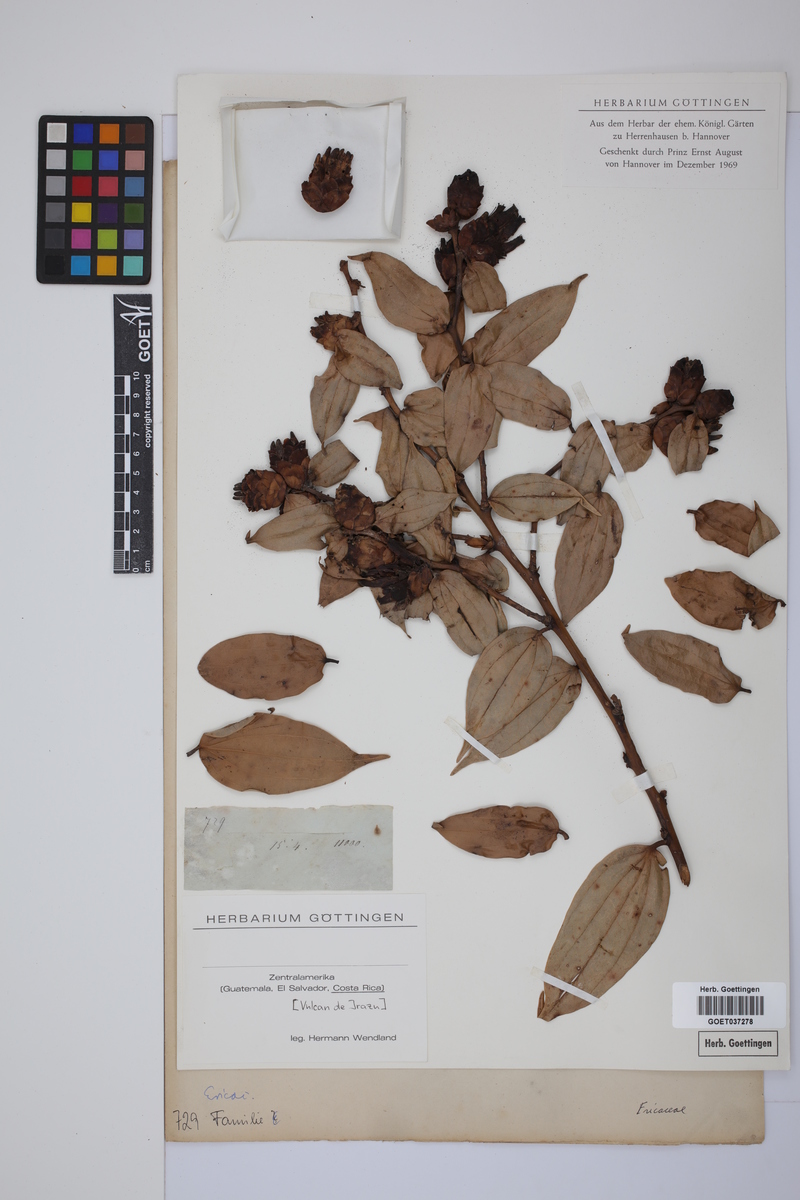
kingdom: Plantae
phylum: Tracheophyta
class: Magnoliopsida
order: Ericales
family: Ericaceae
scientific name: Ericaceae
